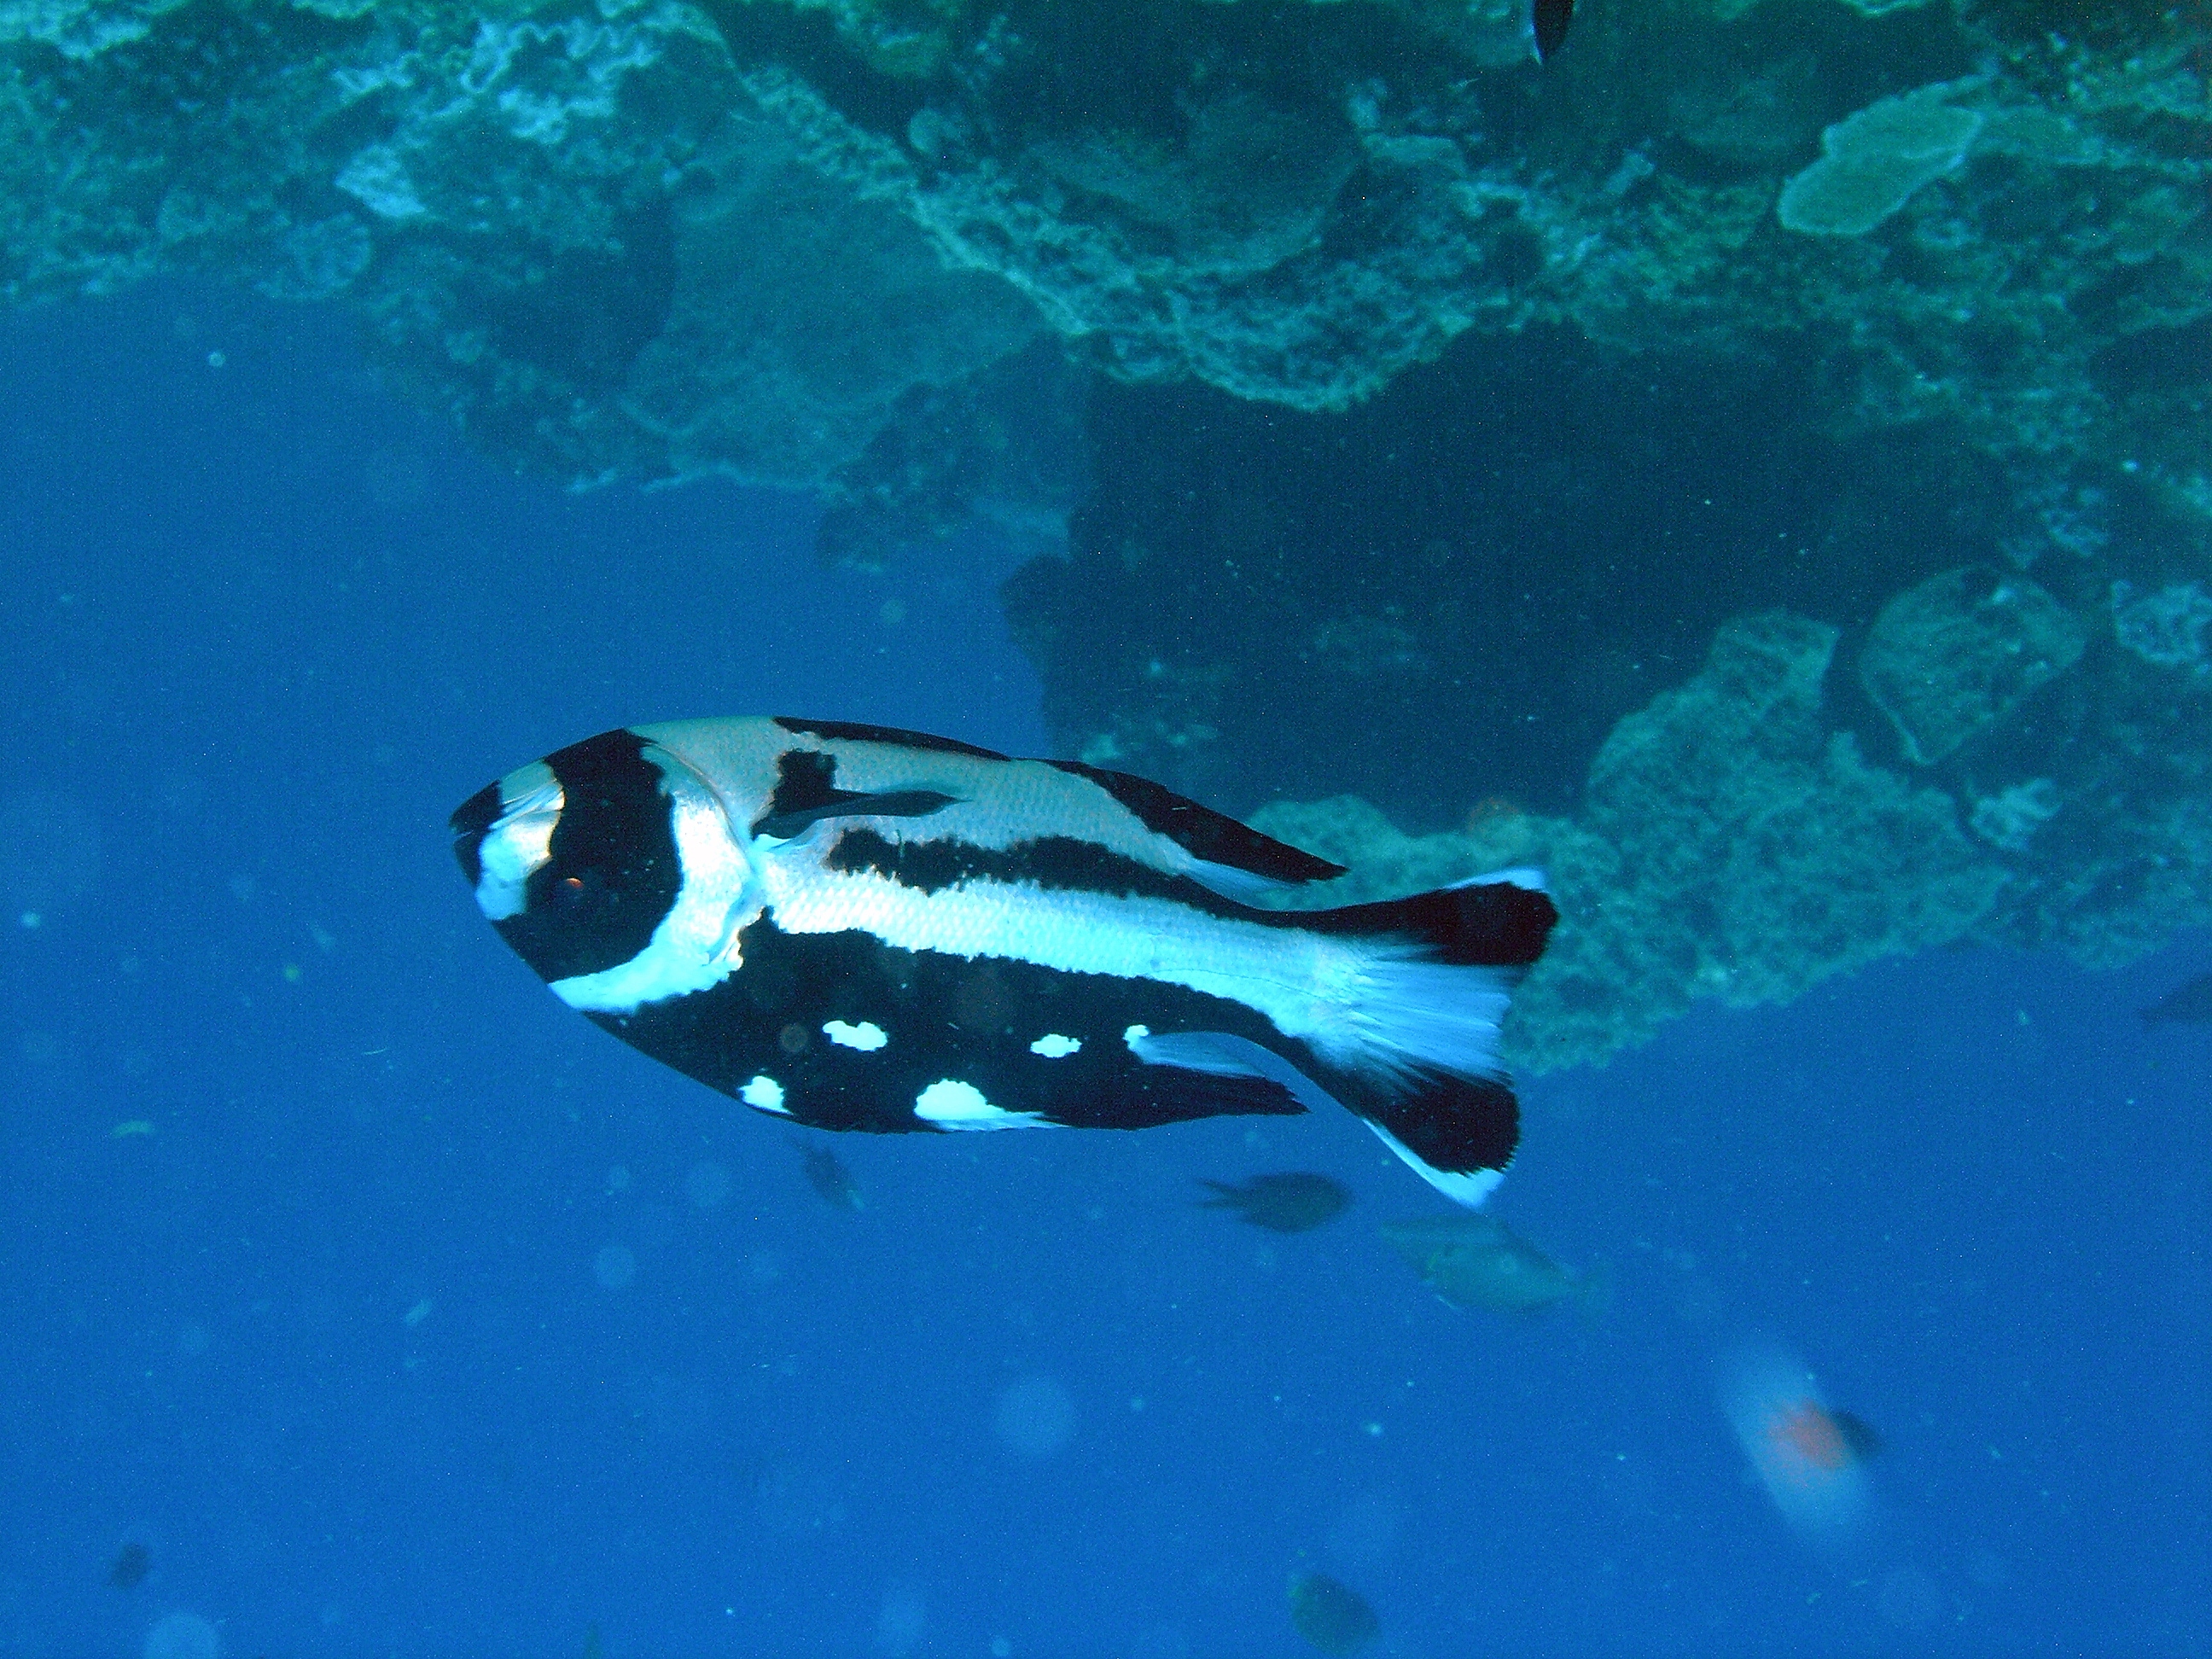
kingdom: Animalia
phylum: Chordata
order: Perciformes
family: Lutjanidae
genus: Macolor
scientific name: Macolor niger
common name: Black snapper
